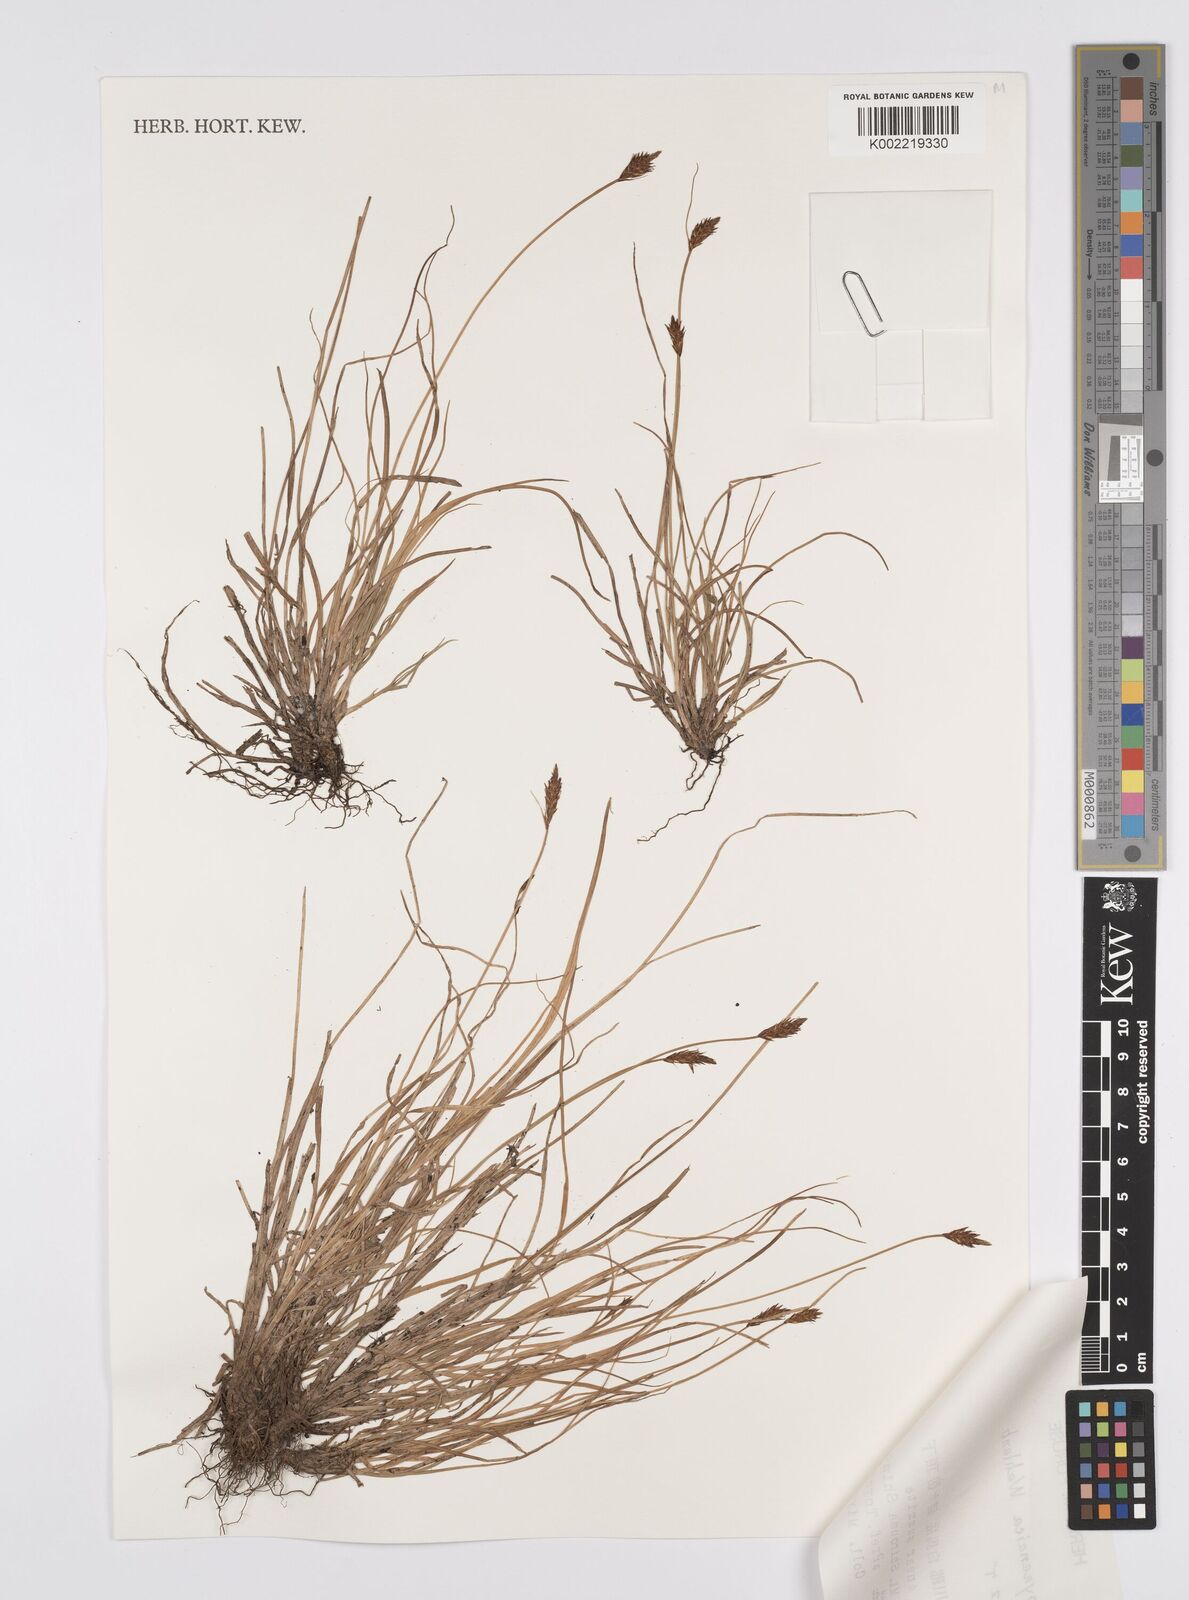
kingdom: Plantae
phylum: Tracheophyta
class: Liliopsida
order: Poales
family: Cyperaceae
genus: Carex
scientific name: Carex pyrenaica
